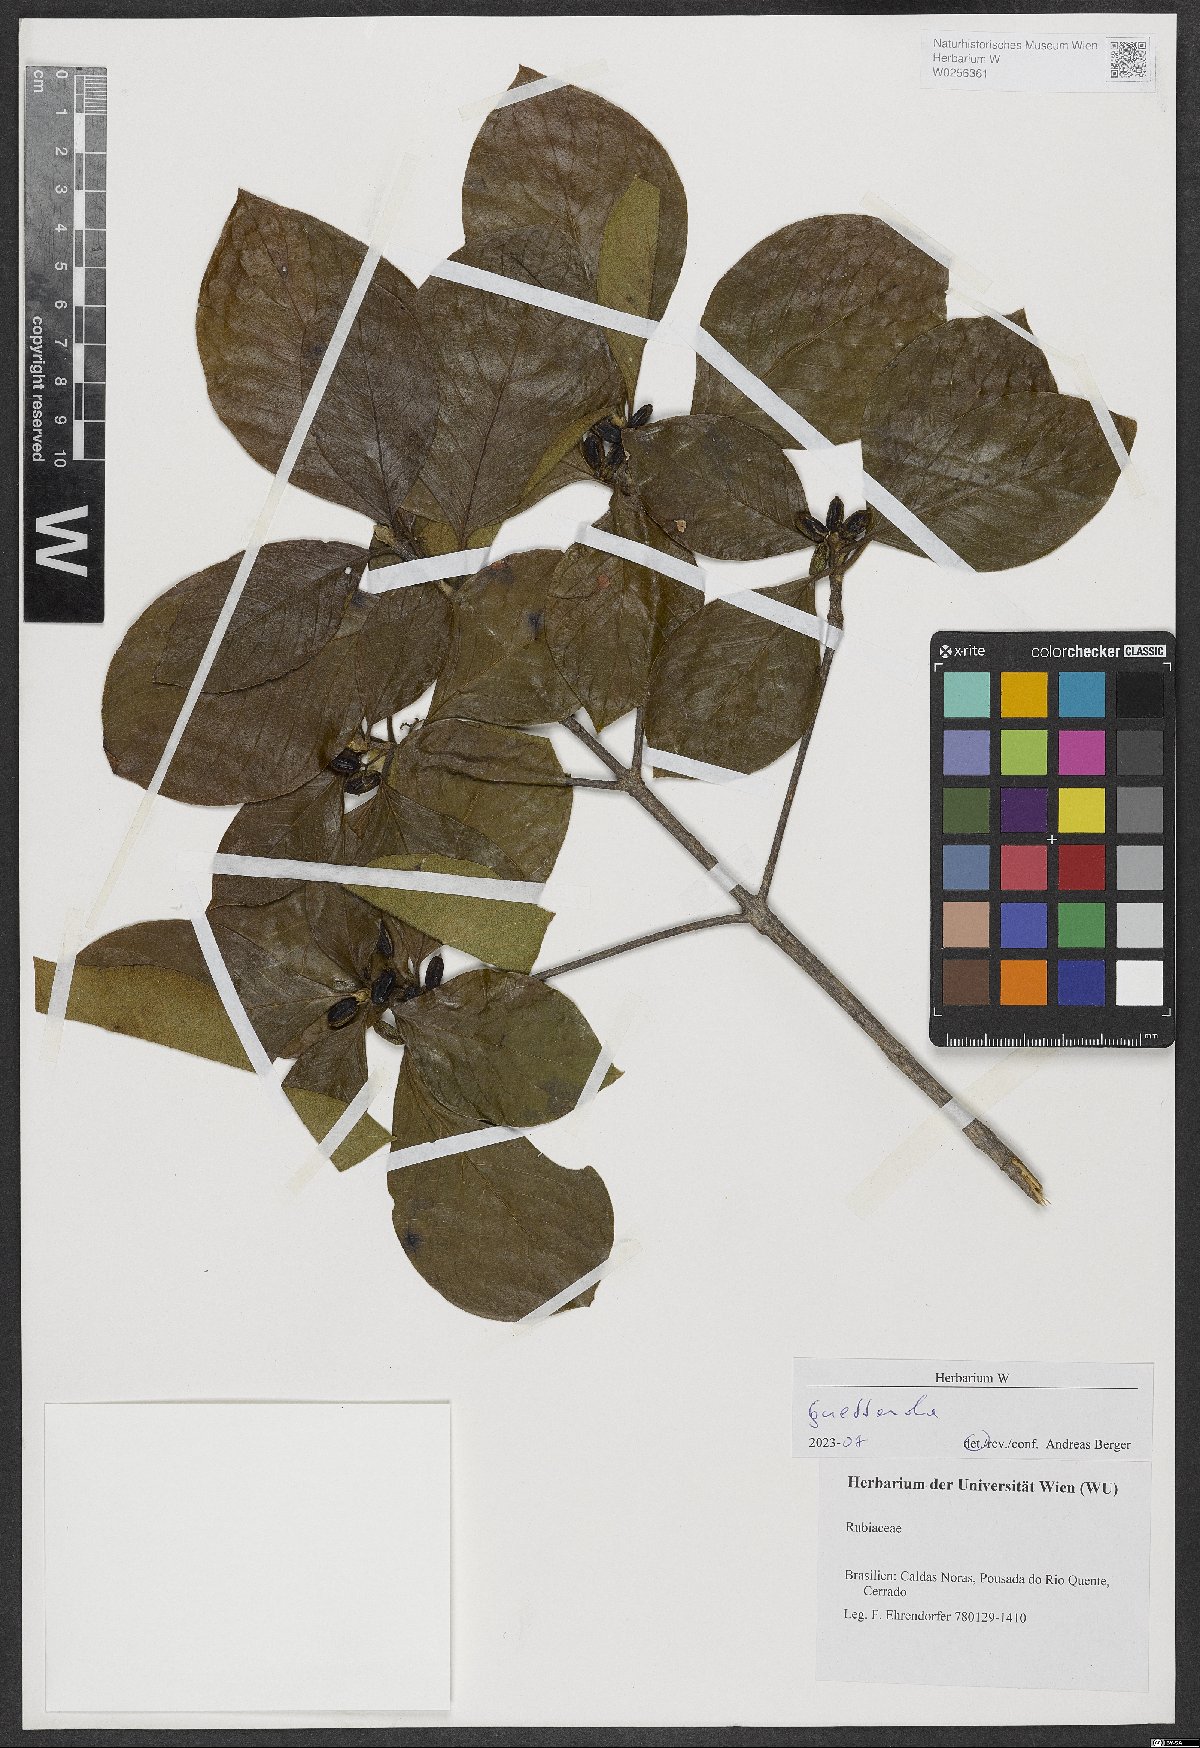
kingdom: Plantae
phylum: Tracheophyta
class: Magnoliopsida
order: Gentianales
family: Rubiaceae
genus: Guettarda
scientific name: Guettarda
